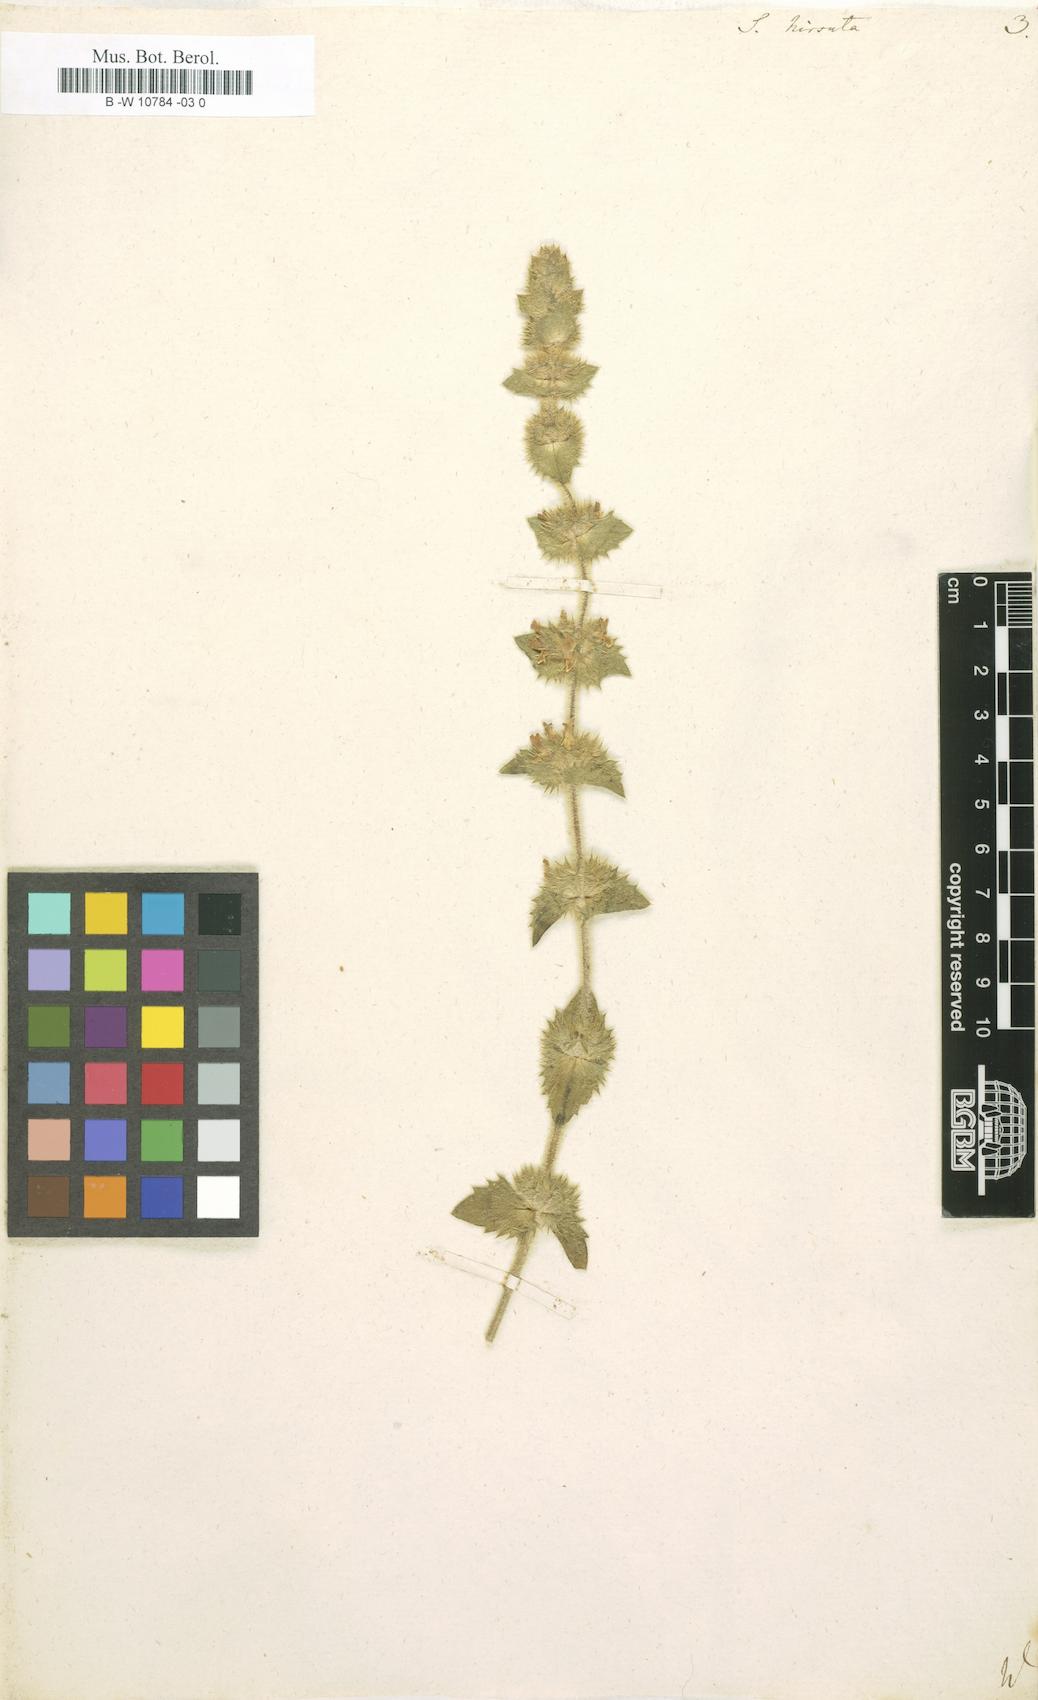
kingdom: Plantae
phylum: Tracheophyta
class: Magnoliopsida
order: Lamiales
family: Lamiaceae
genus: Sideritis
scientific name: Sideritis hirsuta
